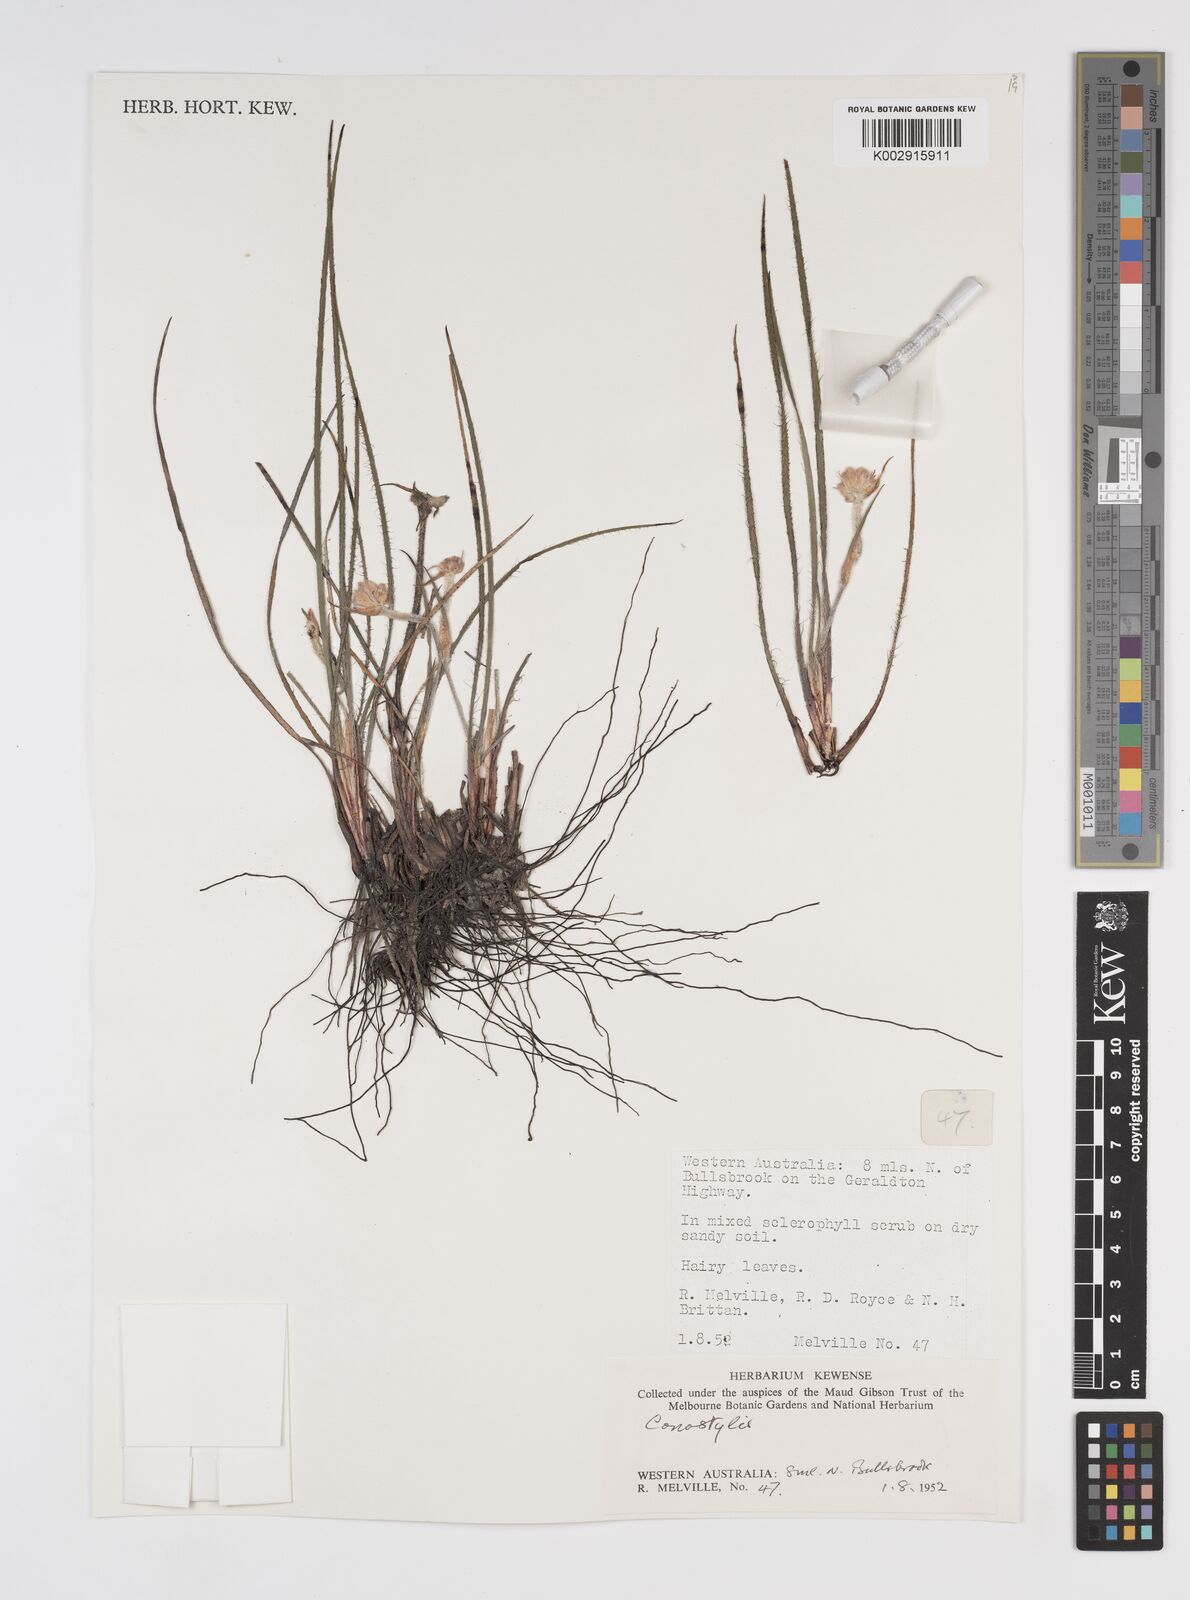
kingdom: Plantae
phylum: Tracheophyta
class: Liliopsida
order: Commelinales
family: Haemodoraceae
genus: Conostylis
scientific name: Conostylis
